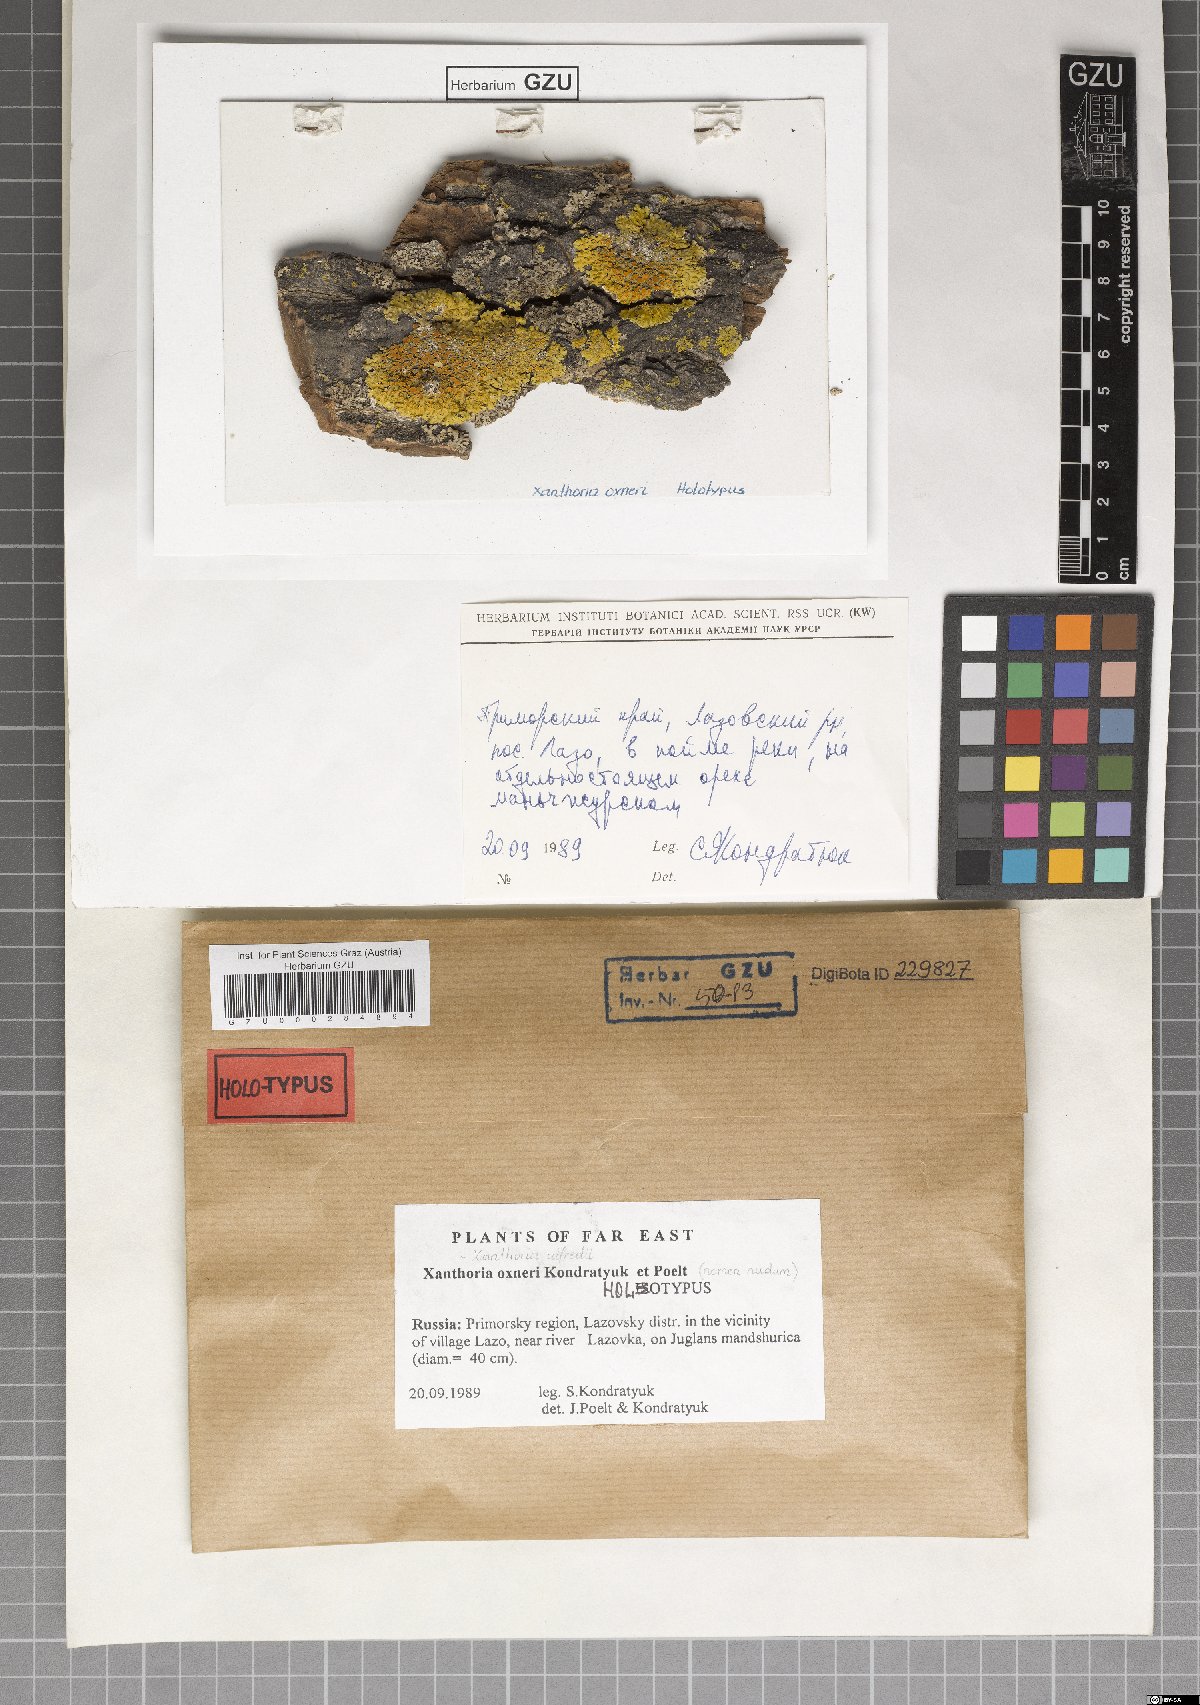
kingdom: Fungi
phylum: Ascomycota
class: Lecanoromycetes
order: Teloschistales
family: Teloschistaceae
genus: Oxneria
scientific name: Oxneria alfredii
